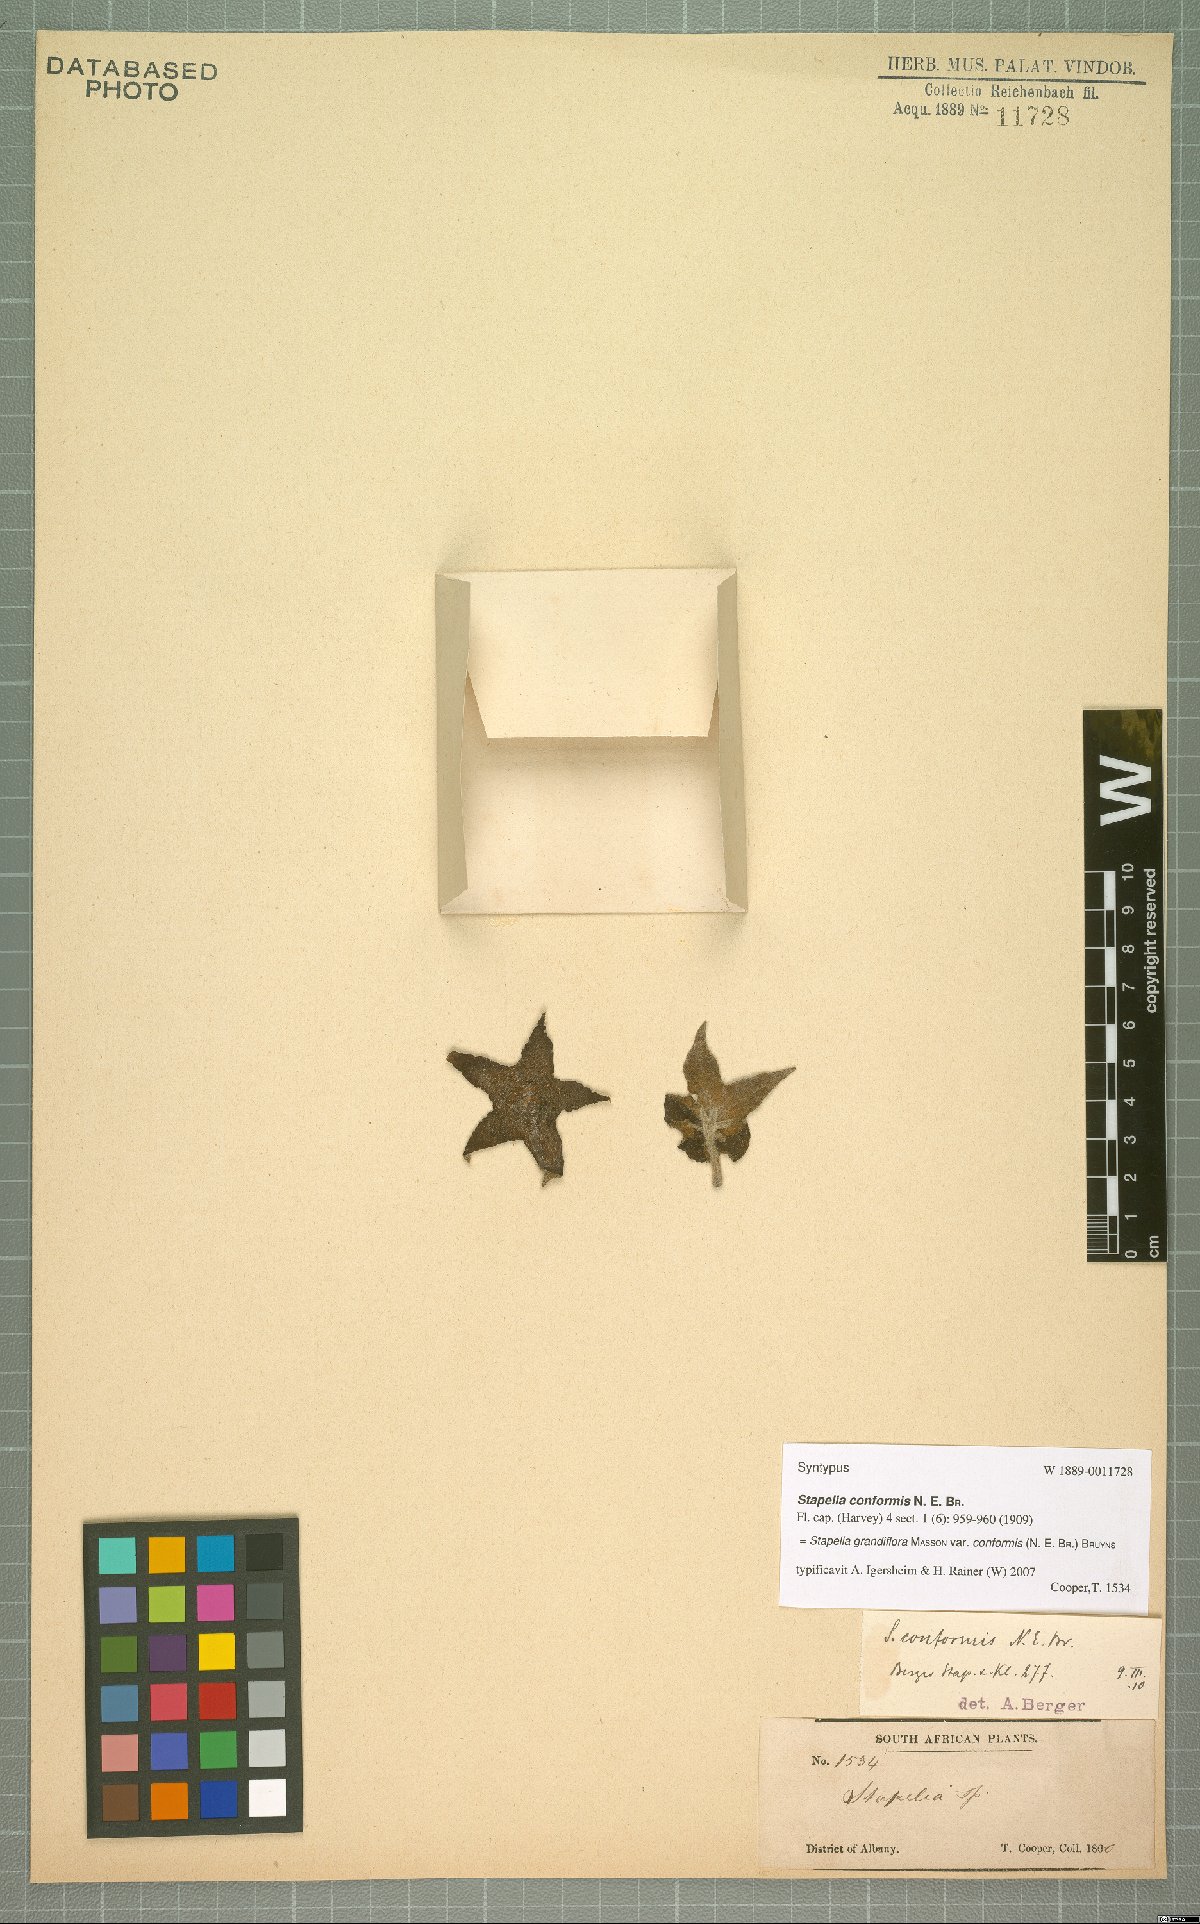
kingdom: Plantae
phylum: Tracheophyta
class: Magnoliopsida
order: Gentianales
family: Apocynaceae
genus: Ceropegia
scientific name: Ceropegia grandiflora
